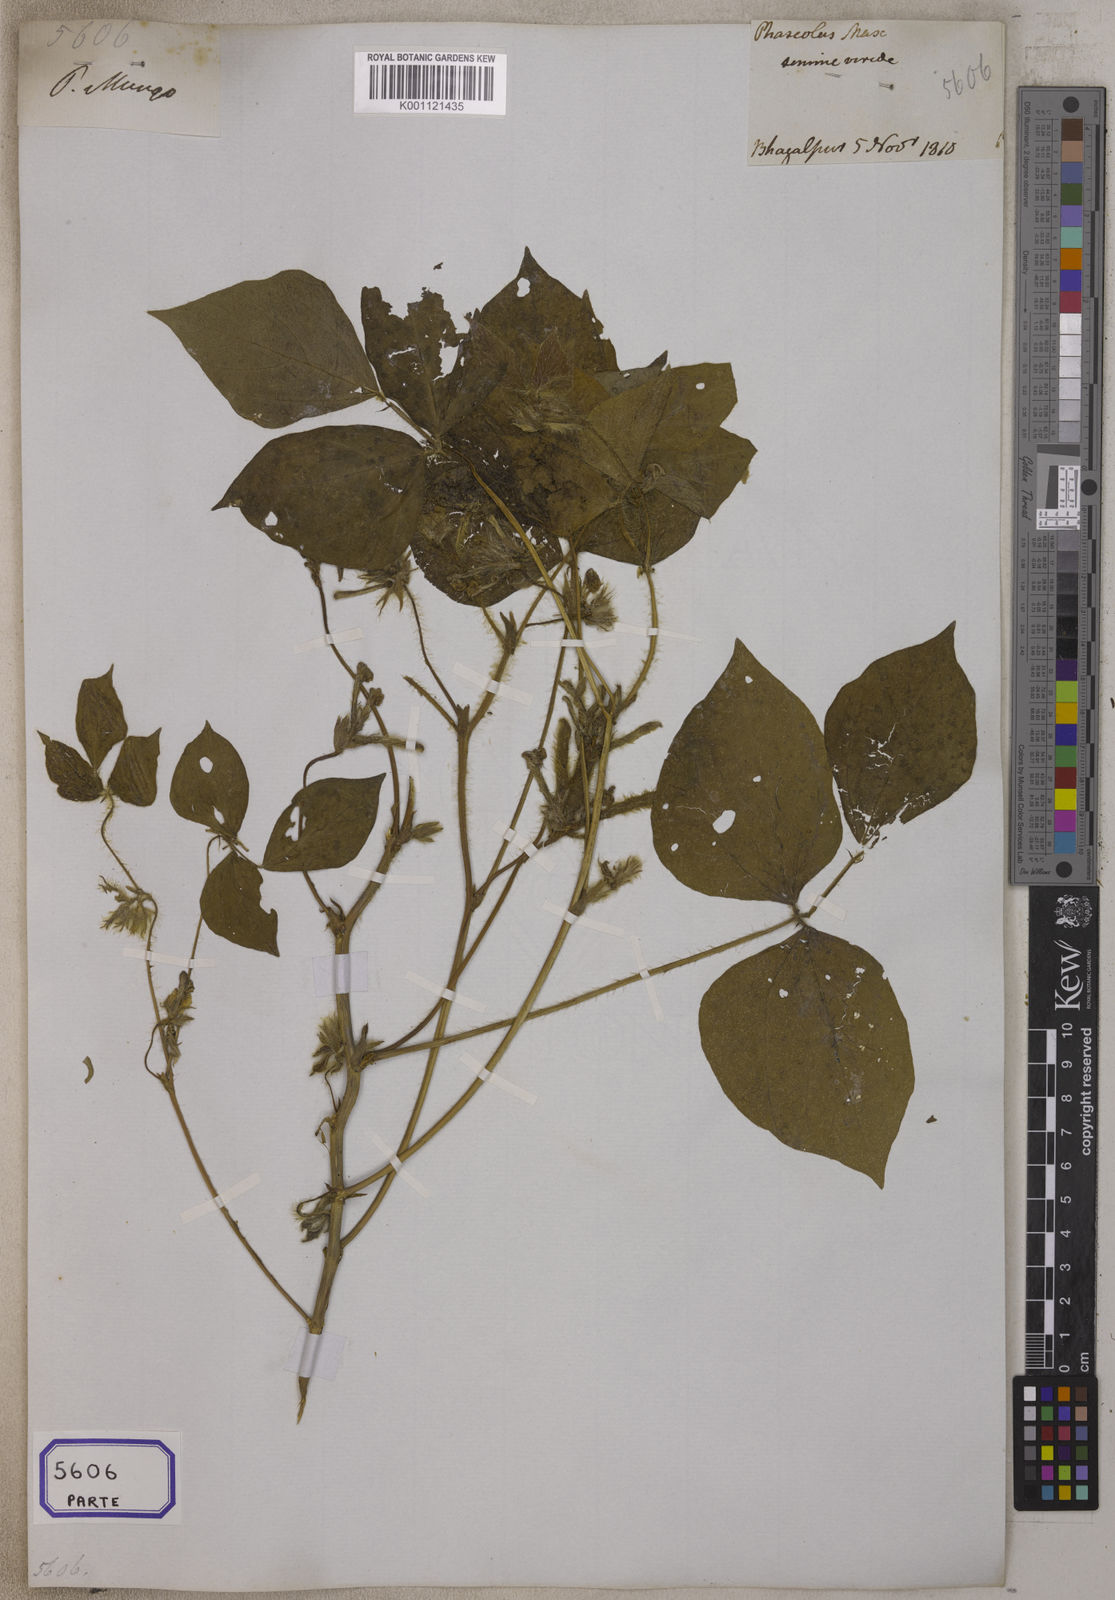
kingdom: Plantae
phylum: Tracheophyta
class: Magnoliopsida
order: Fabales
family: Fabaceae
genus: Glycine
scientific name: Glycine max
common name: Soya-bean
